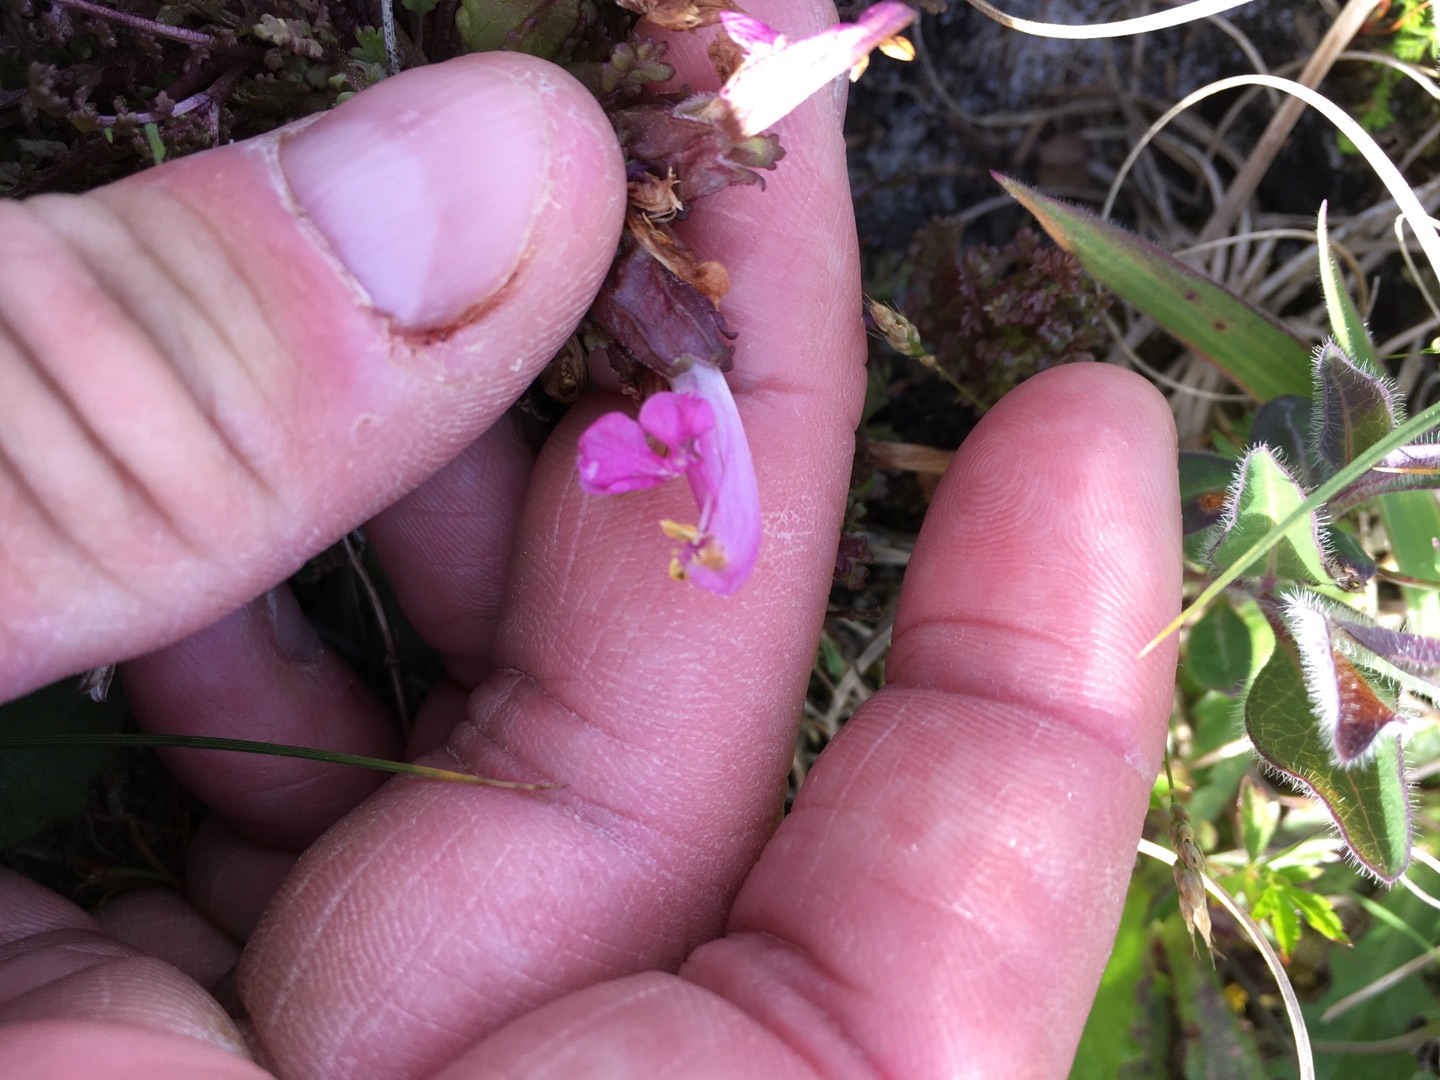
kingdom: Plantae
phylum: Tracheophyta
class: Magnoliopsida
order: Lamiales
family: Orobanchaceae
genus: Pedicularis
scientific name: Pedicularis sylvatica
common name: Mose-troldurt
